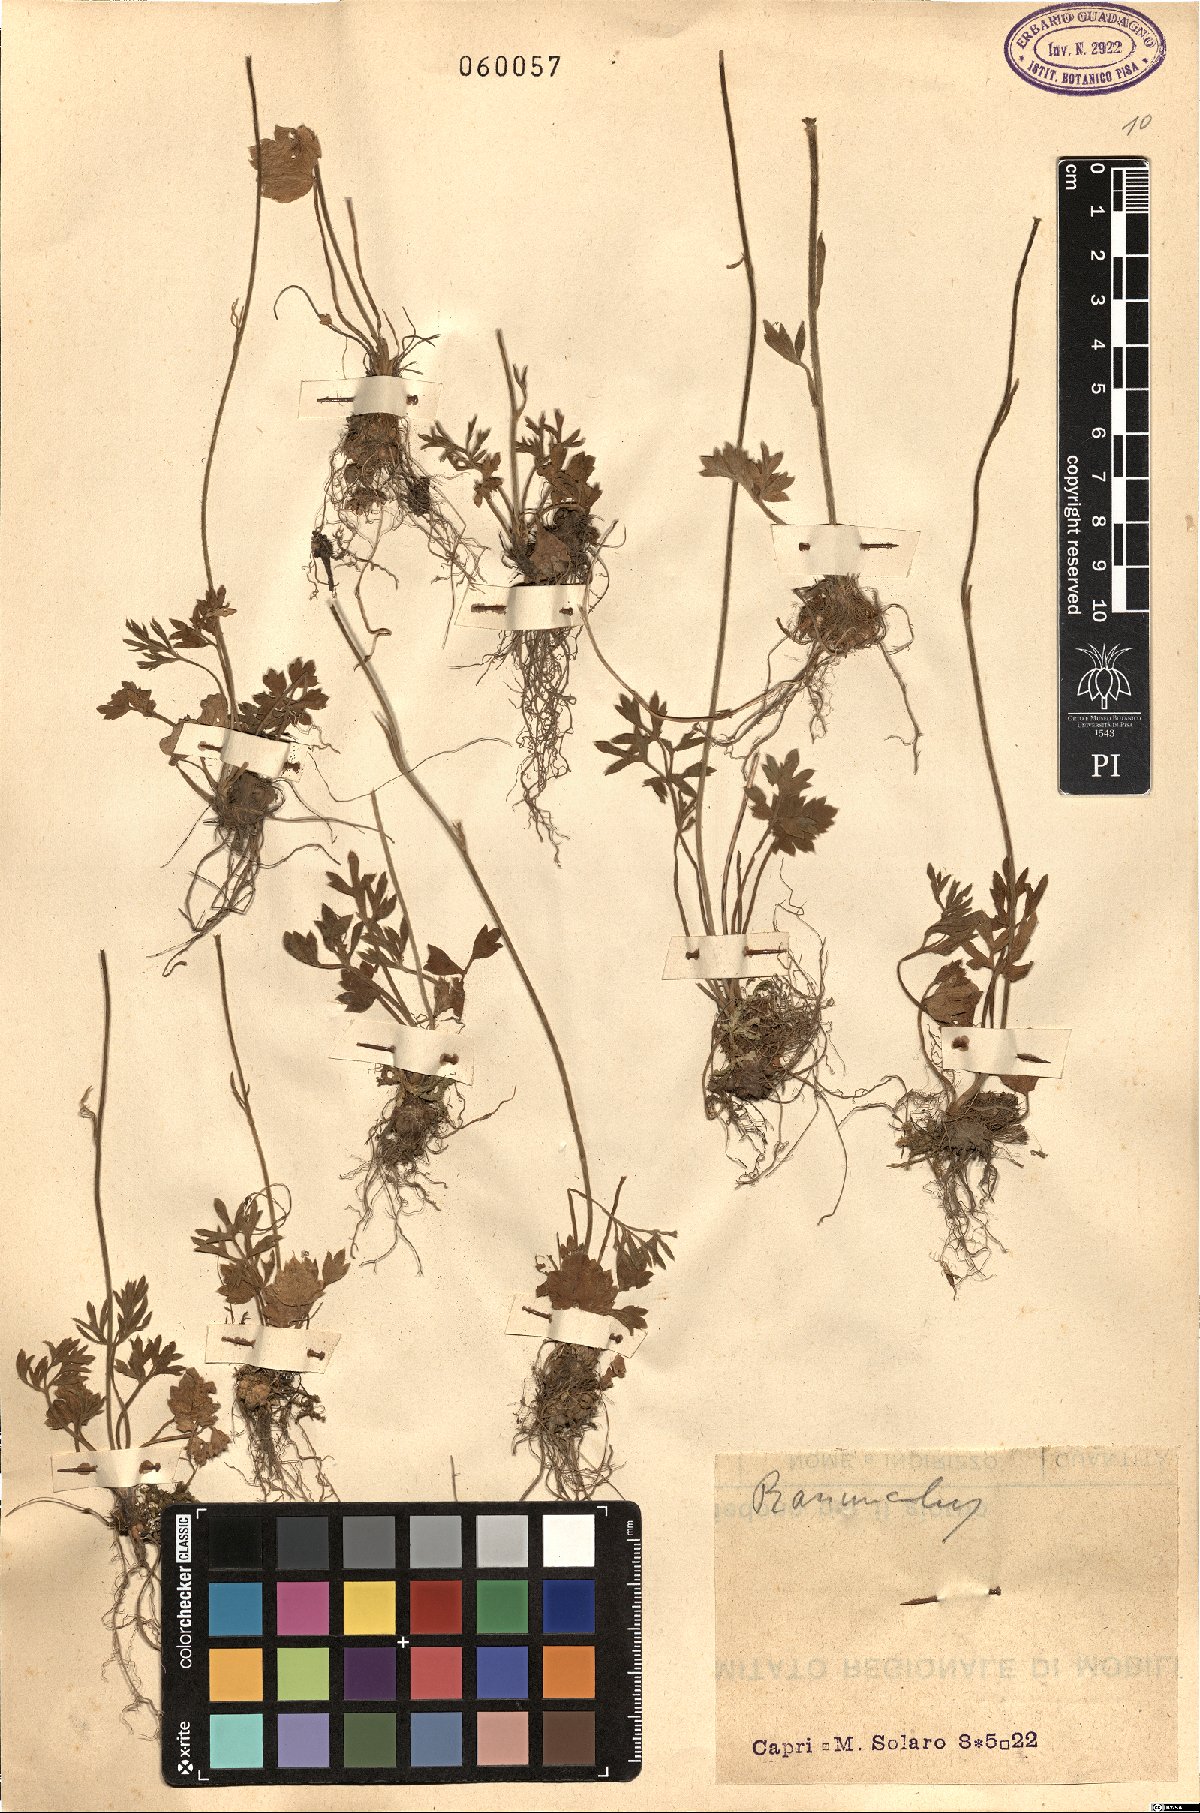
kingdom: Plantae
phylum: Tracheophyta
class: Magnoliopsida
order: Ranunculales
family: Ranunculaceae
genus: Ranunculus
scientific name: Ranunculus
